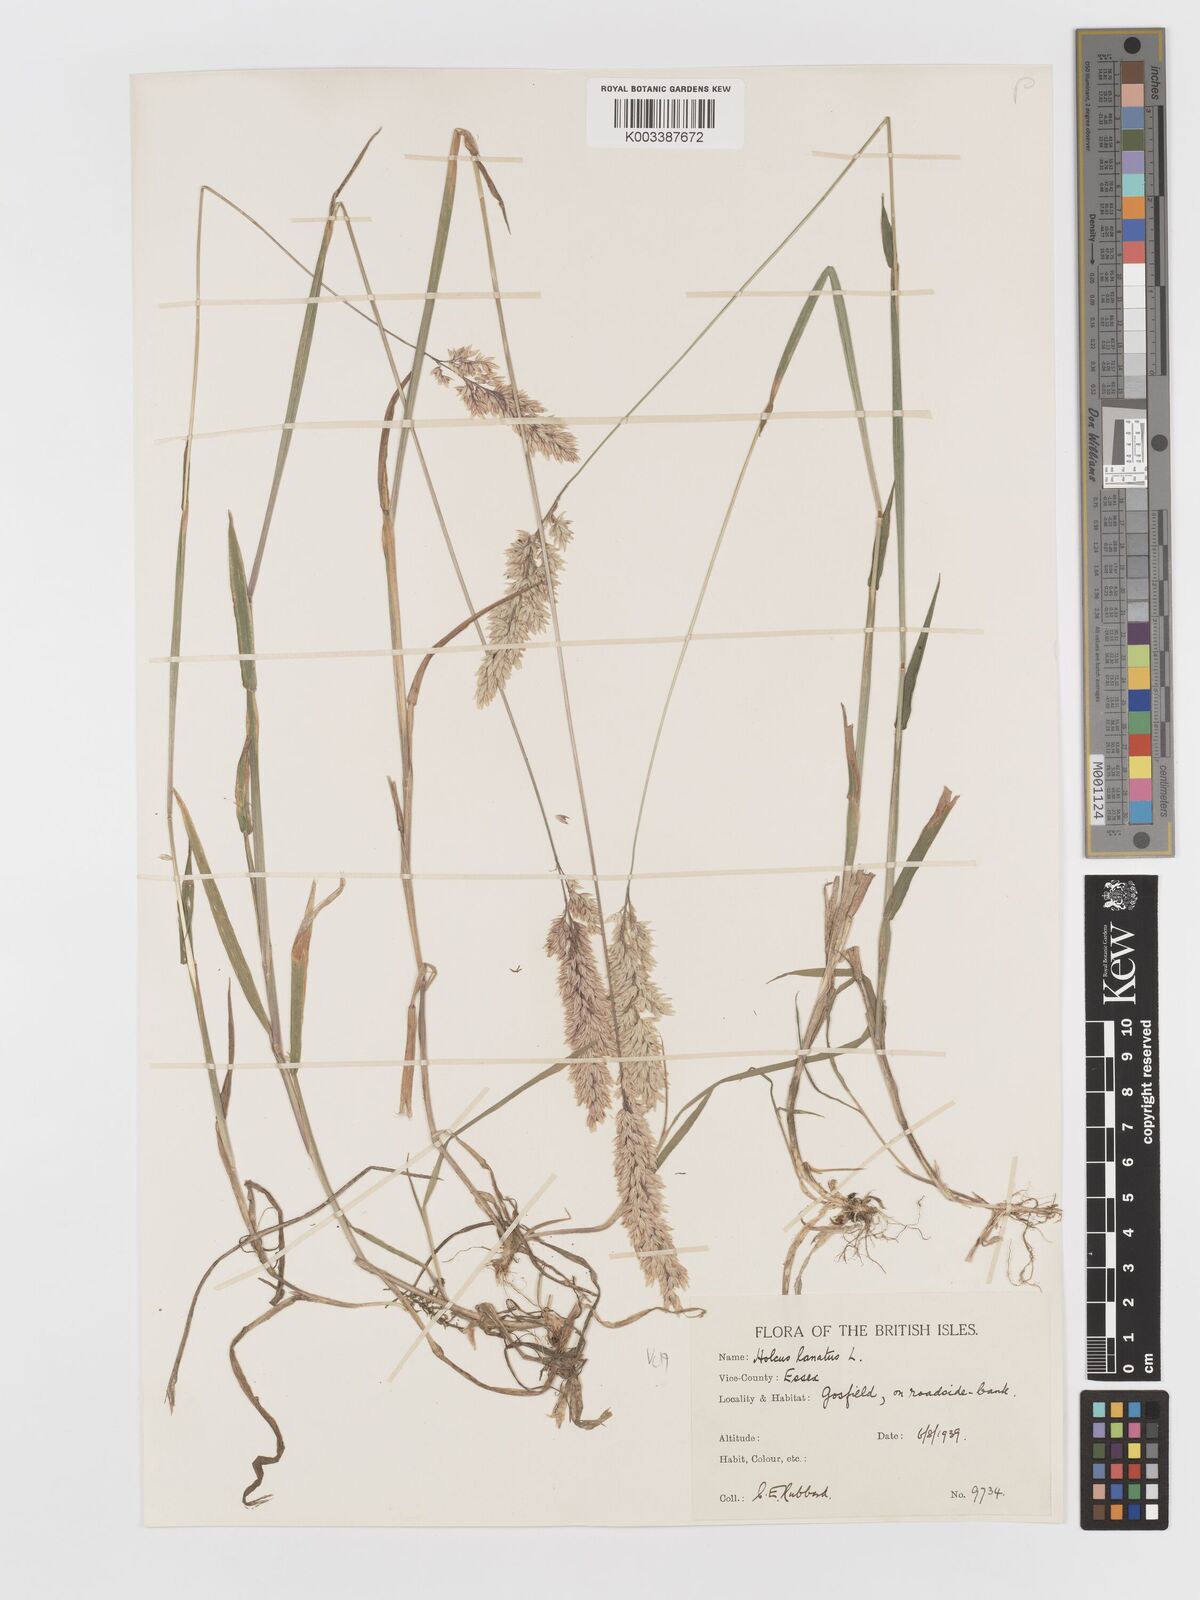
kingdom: Plantae
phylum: Tracheophyta
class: Liliopsida
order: Poales
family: Poaceae
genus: Holcus
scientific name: Holcus lanatus
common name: Yorkshire-fog
